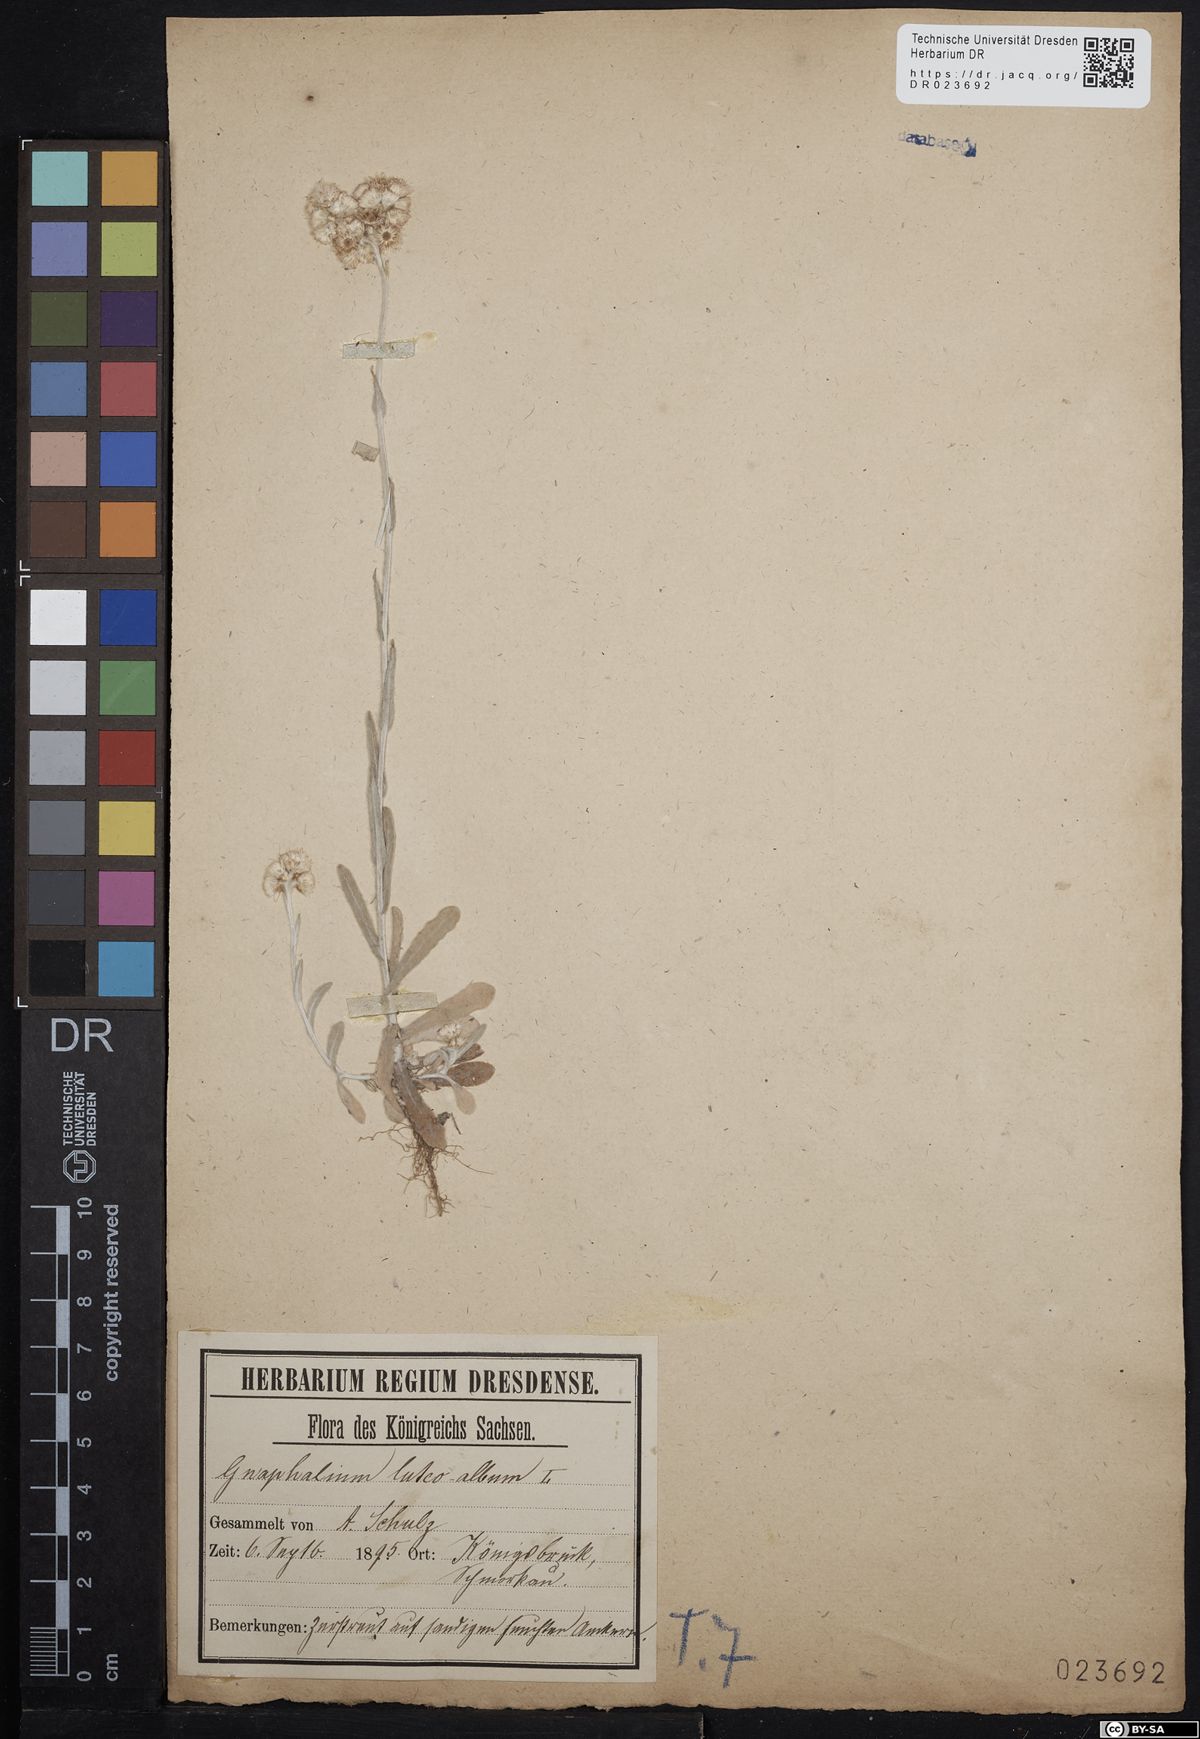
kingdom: Plantae
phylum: Tracheophyta
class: Magnoliopsida
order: Asterales
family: Asteraceae
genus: Helichrysum
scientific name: Helichrysum luteoalbum
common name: Daisy
